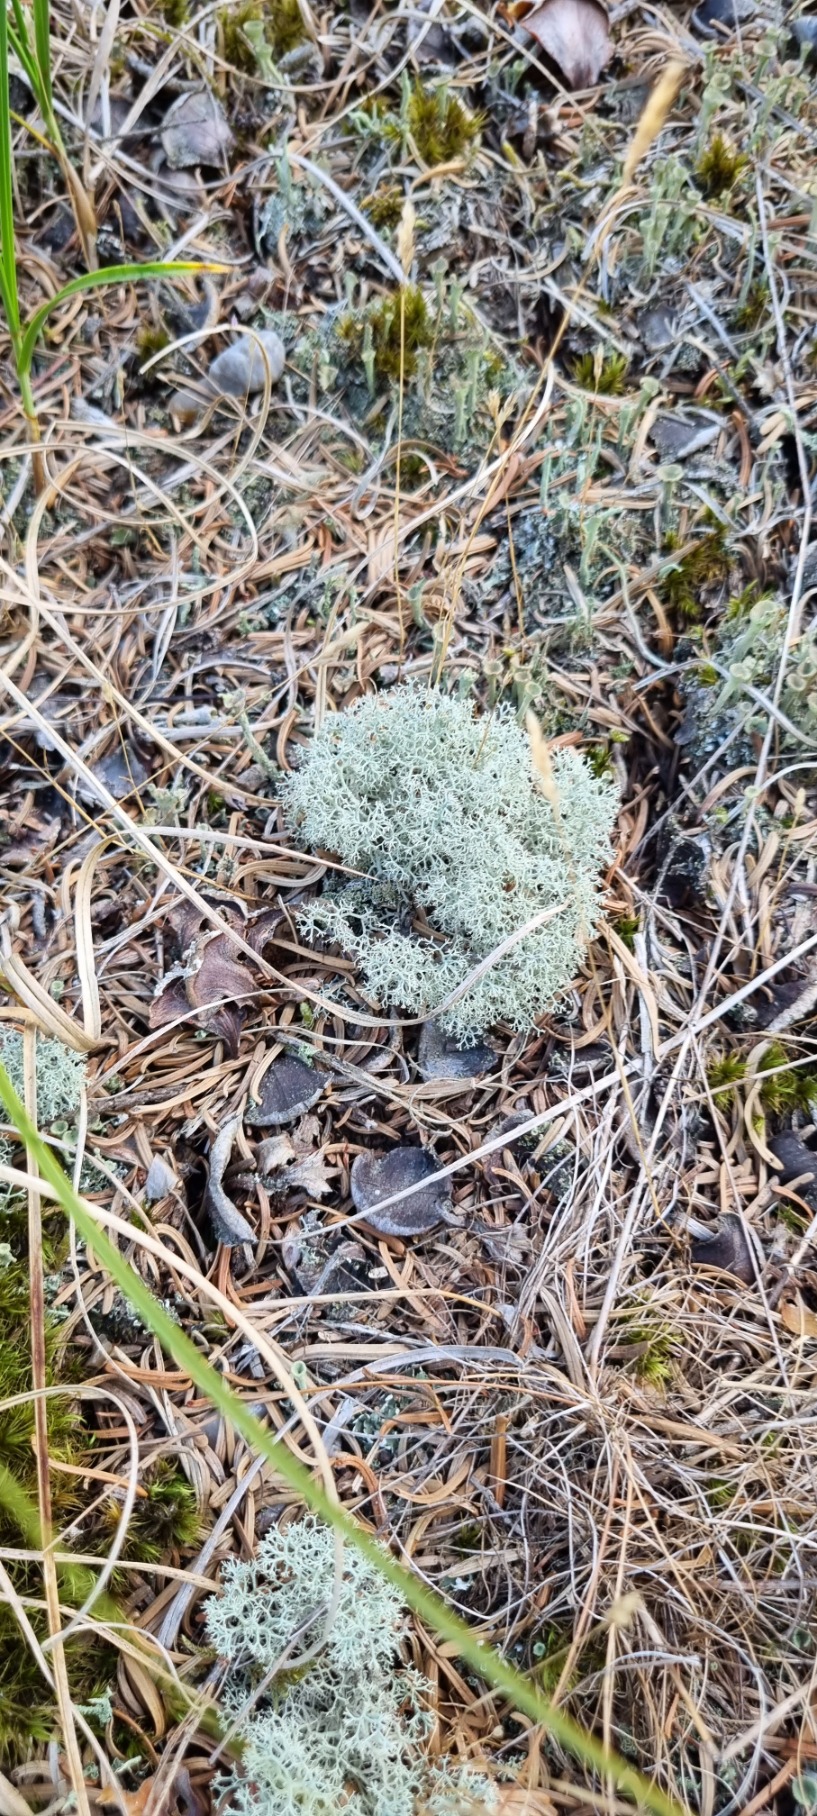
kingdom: Fungi
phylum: Ascomycota
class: Lecanoromycetes
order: Lecanorales
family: Cladoniaceae
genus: Cladonia
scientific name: Cladonia portentosa
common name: Hede-rensdyrlav
